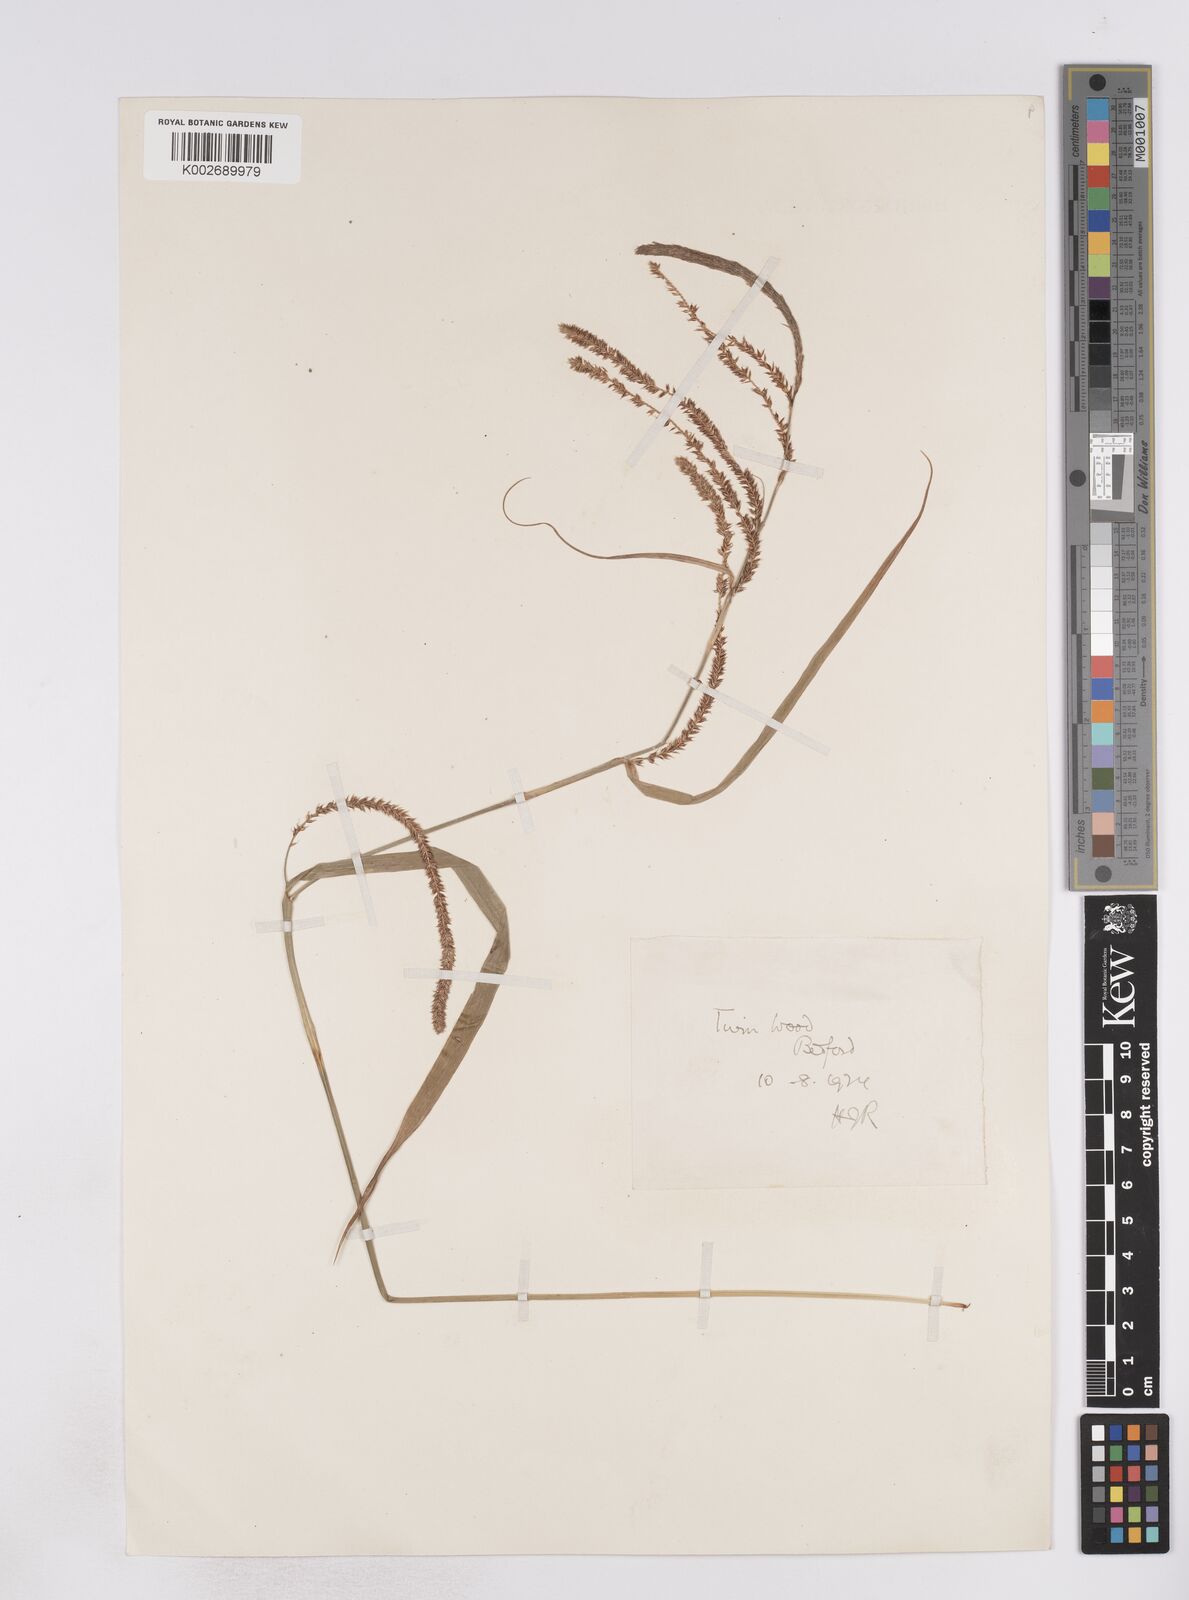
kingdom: Plantae
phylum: Tracheophyta
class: Liliopsida
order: Poales
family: Cyperaceae
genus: Carex
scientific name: Carex pendula
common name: Pendulous sedge
